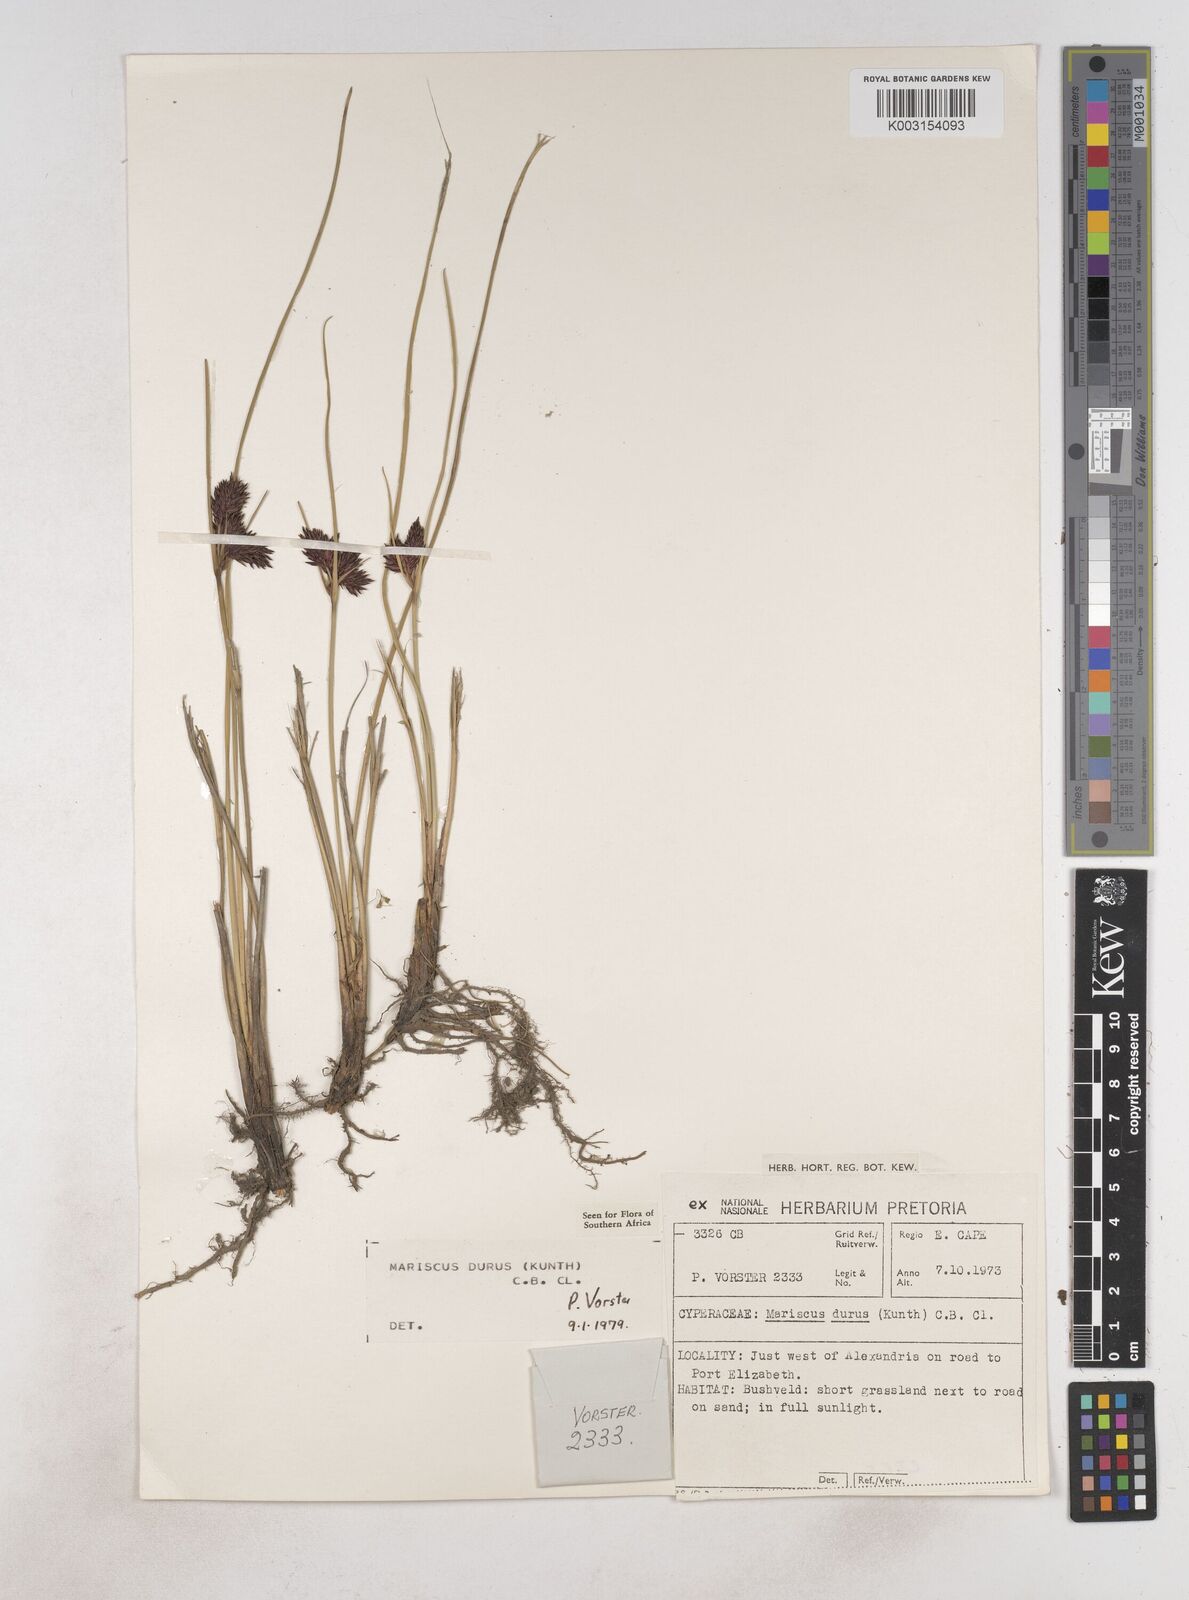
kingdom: Plantae
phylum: Tracheophyta
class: Liliopsida
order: Poales
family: Cyperaceae
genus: Cyperus
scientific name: Cyperus durus
